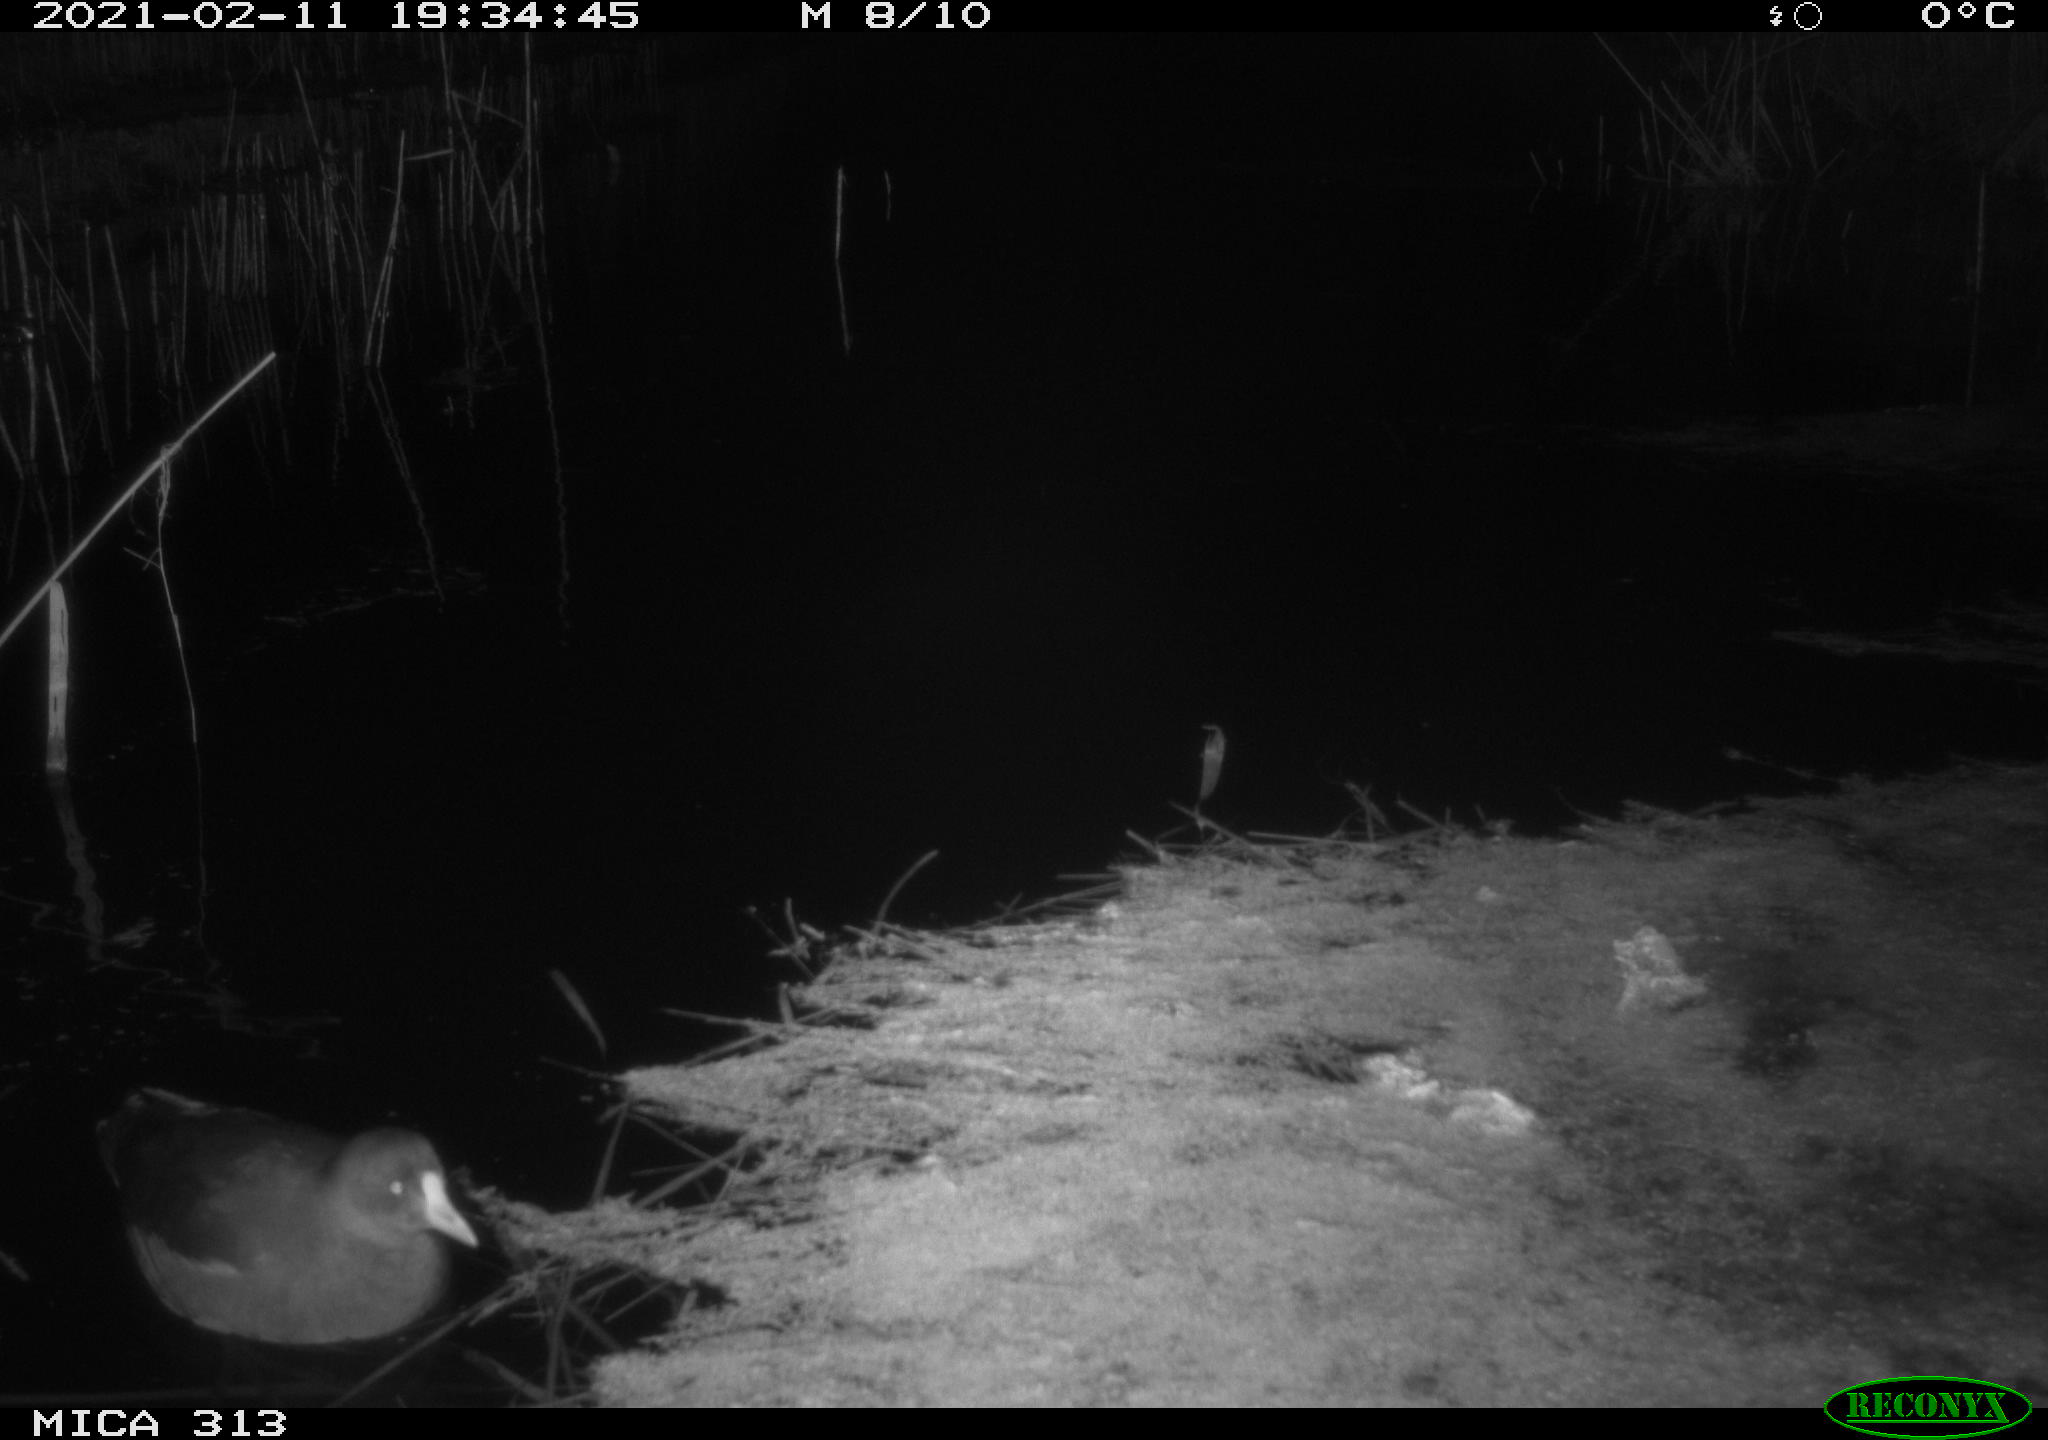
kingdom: Animalia
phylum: Chordata
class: Aves
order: Gruiformes
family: Rallidae
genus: Gallinula
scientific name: Gallinula chloropus
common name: Common moorhen
